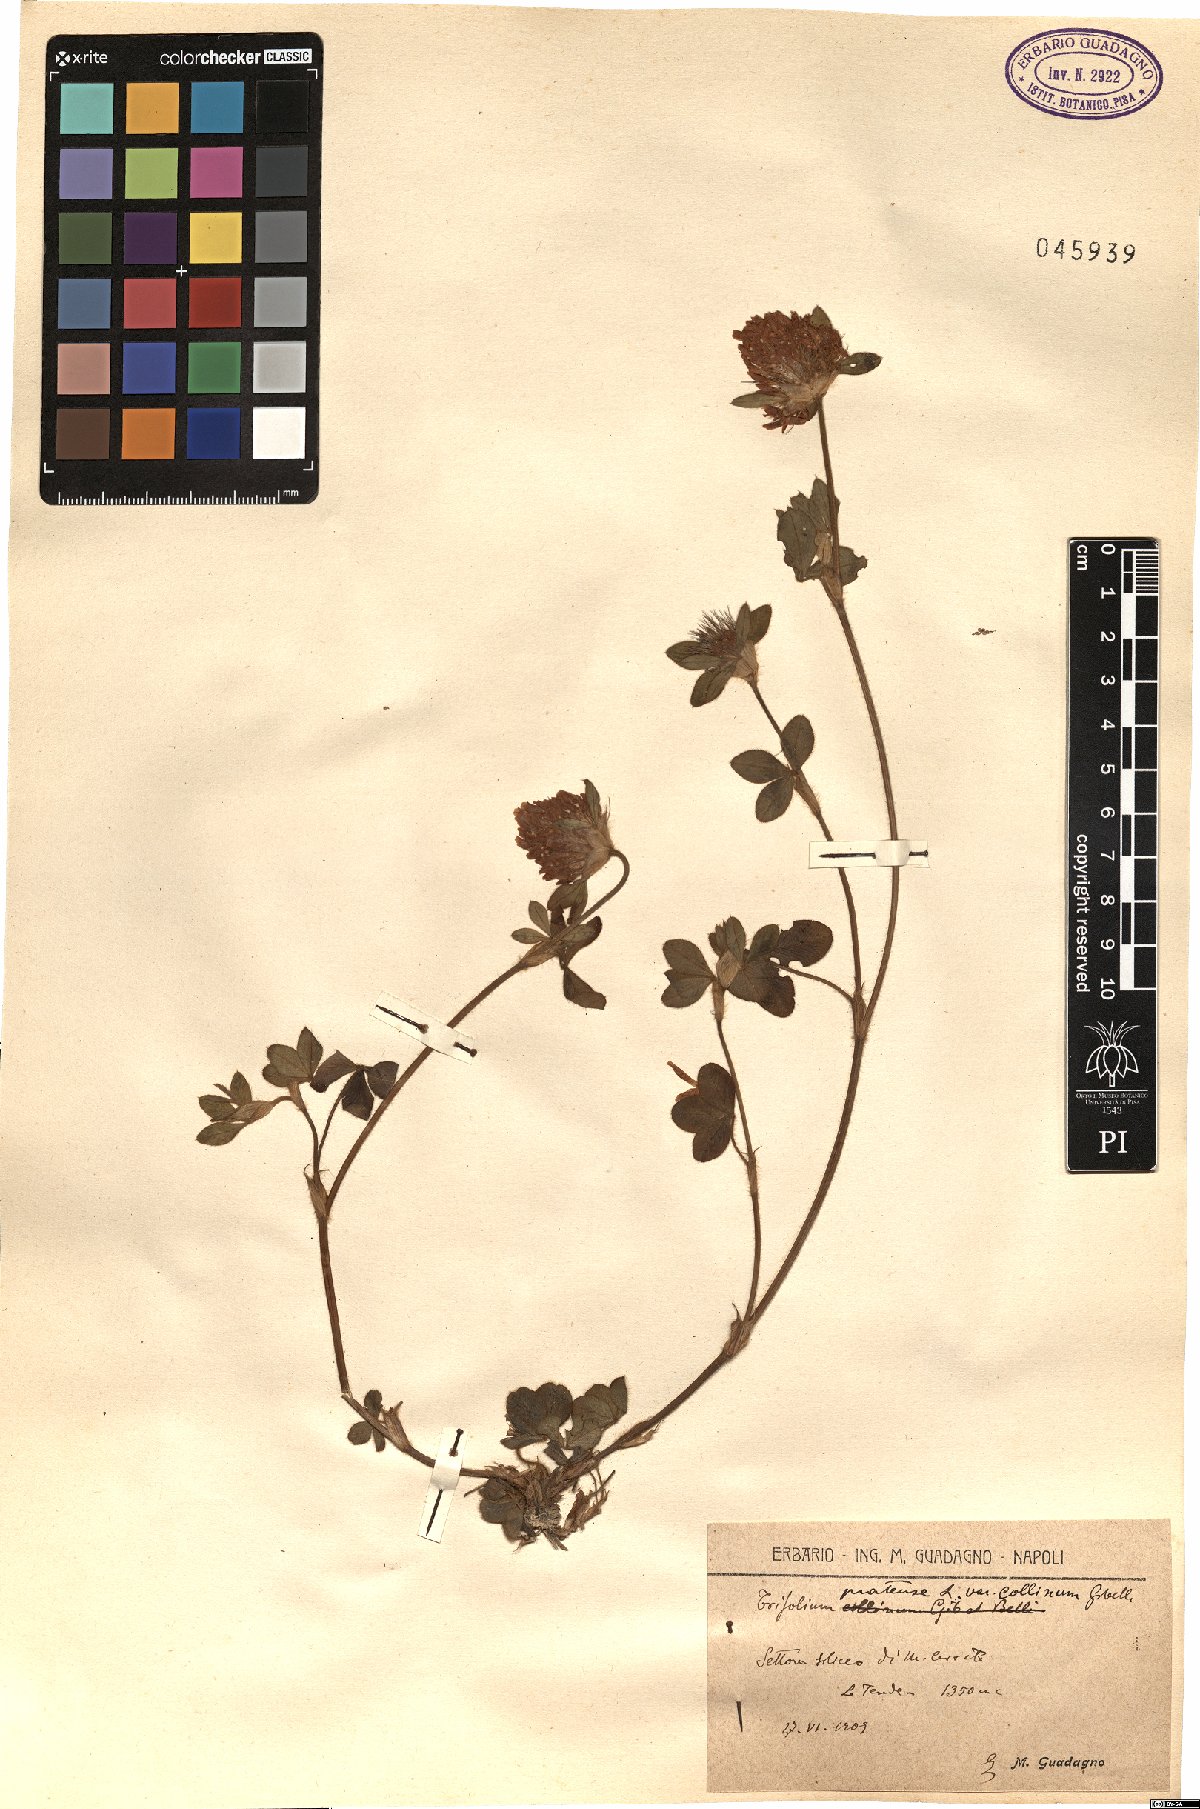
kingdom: Plantae
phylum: Tracheophyta
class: Magnoliopsida
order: Fabales
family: Fabaceae
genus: Trifolium
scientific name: Trifolium pratense
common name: Red clover
